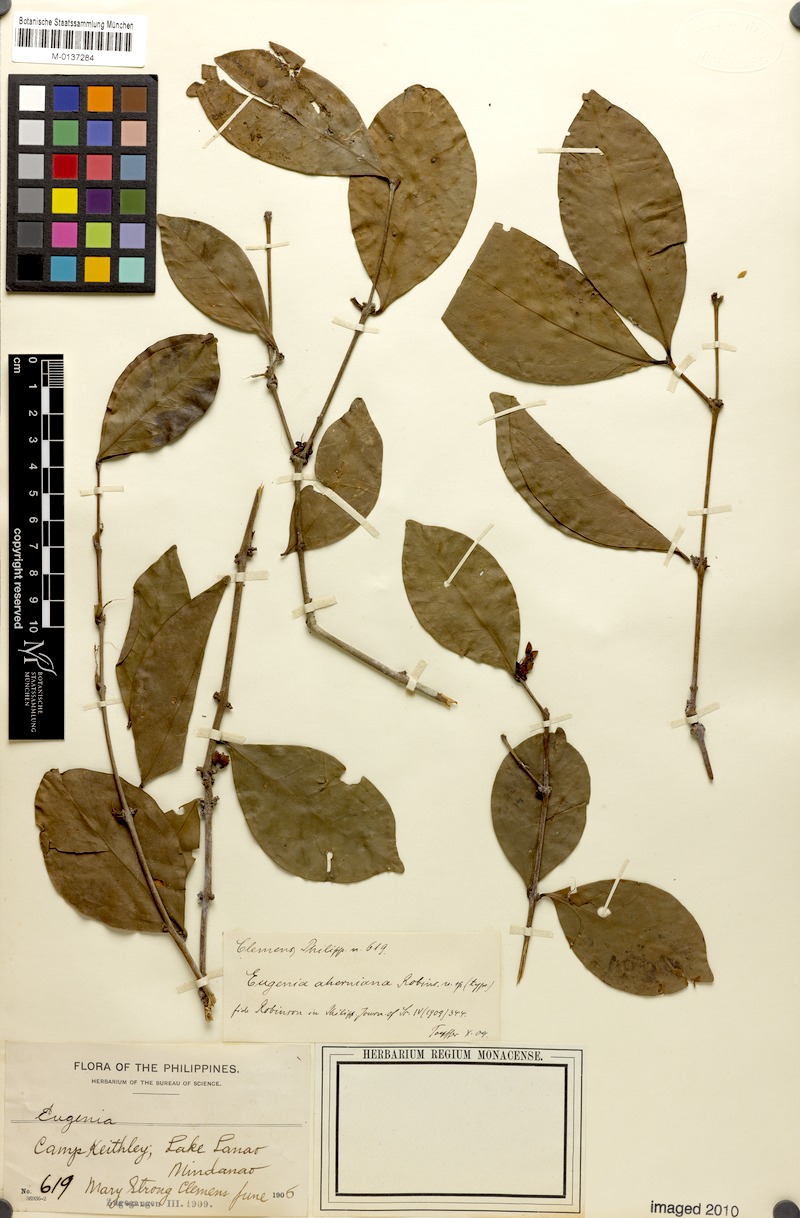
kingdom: Plantae
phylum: Tracheophyta
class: Magnoliopsida
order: Myrtales
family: Myrtaceae
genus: Eugenia
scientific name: Eugenia aherniana
